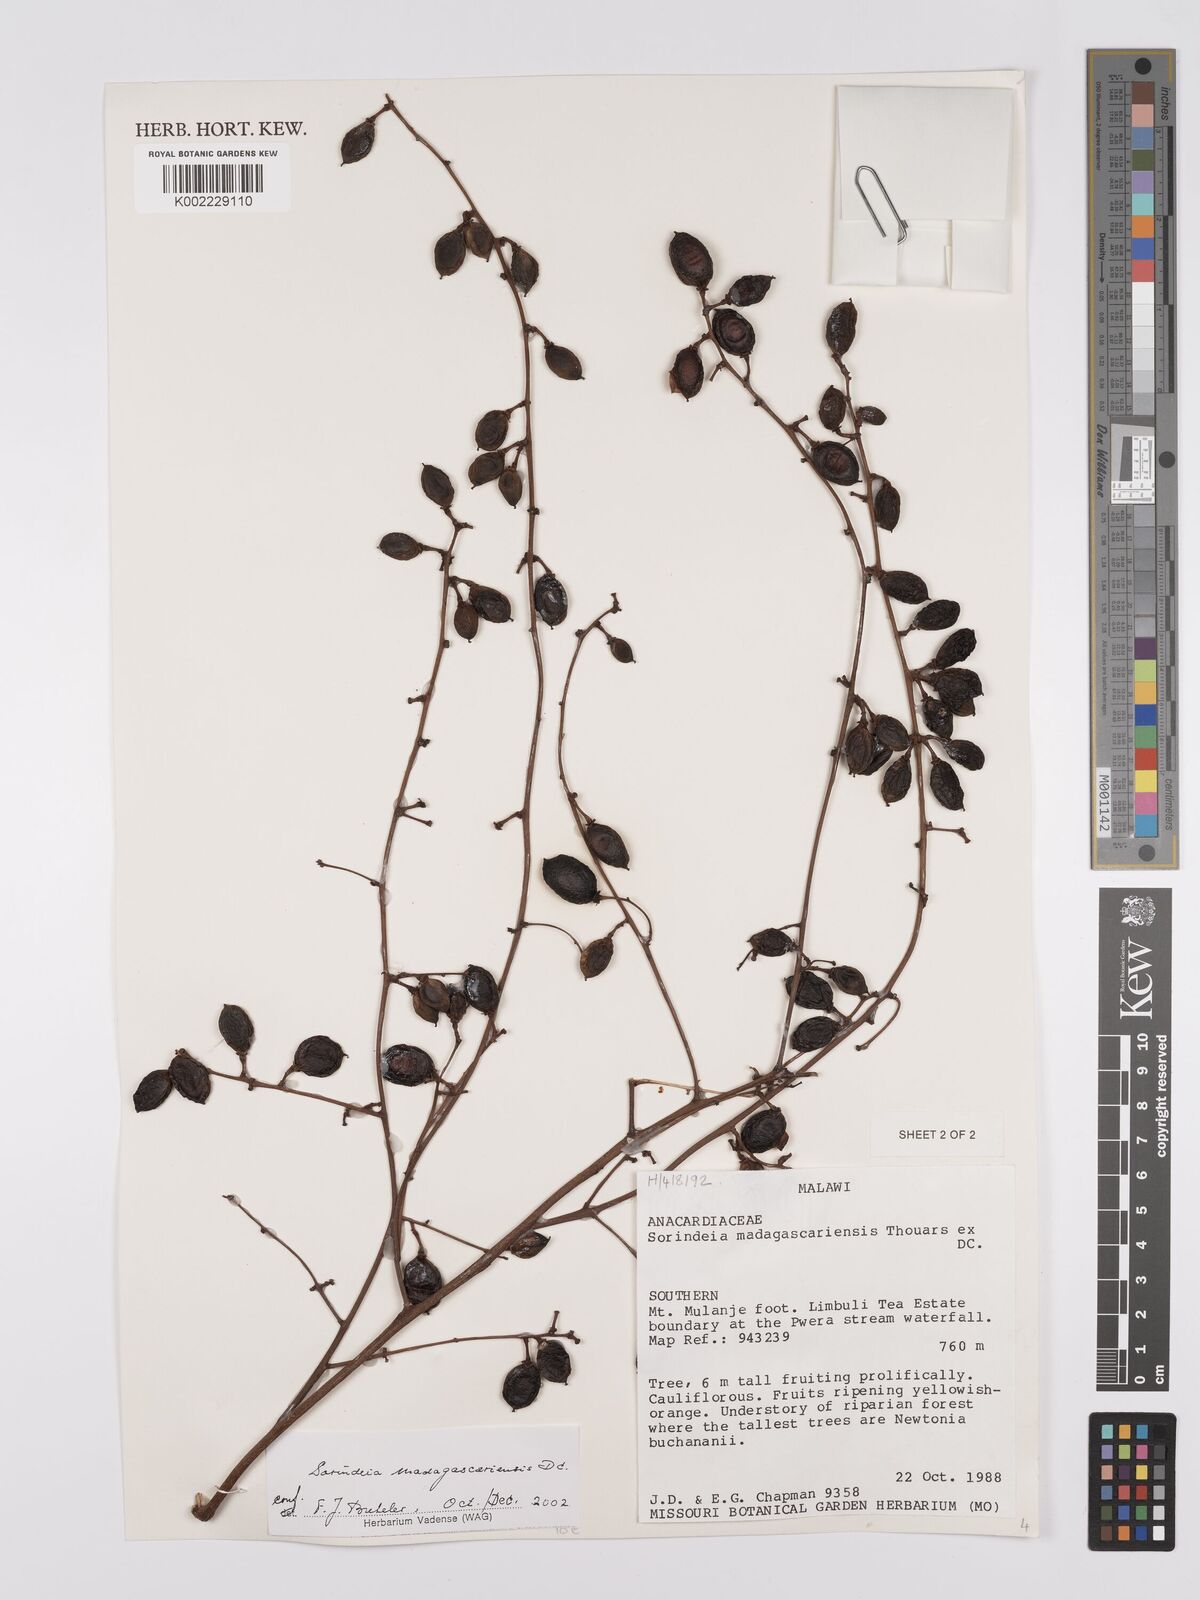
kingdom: Plantae
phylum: Tracheophyta
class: Magnoliopsida
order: Sapindales
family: Anacardiaceae
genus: Sorindeia
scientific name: Sorindeia madagascariensis
